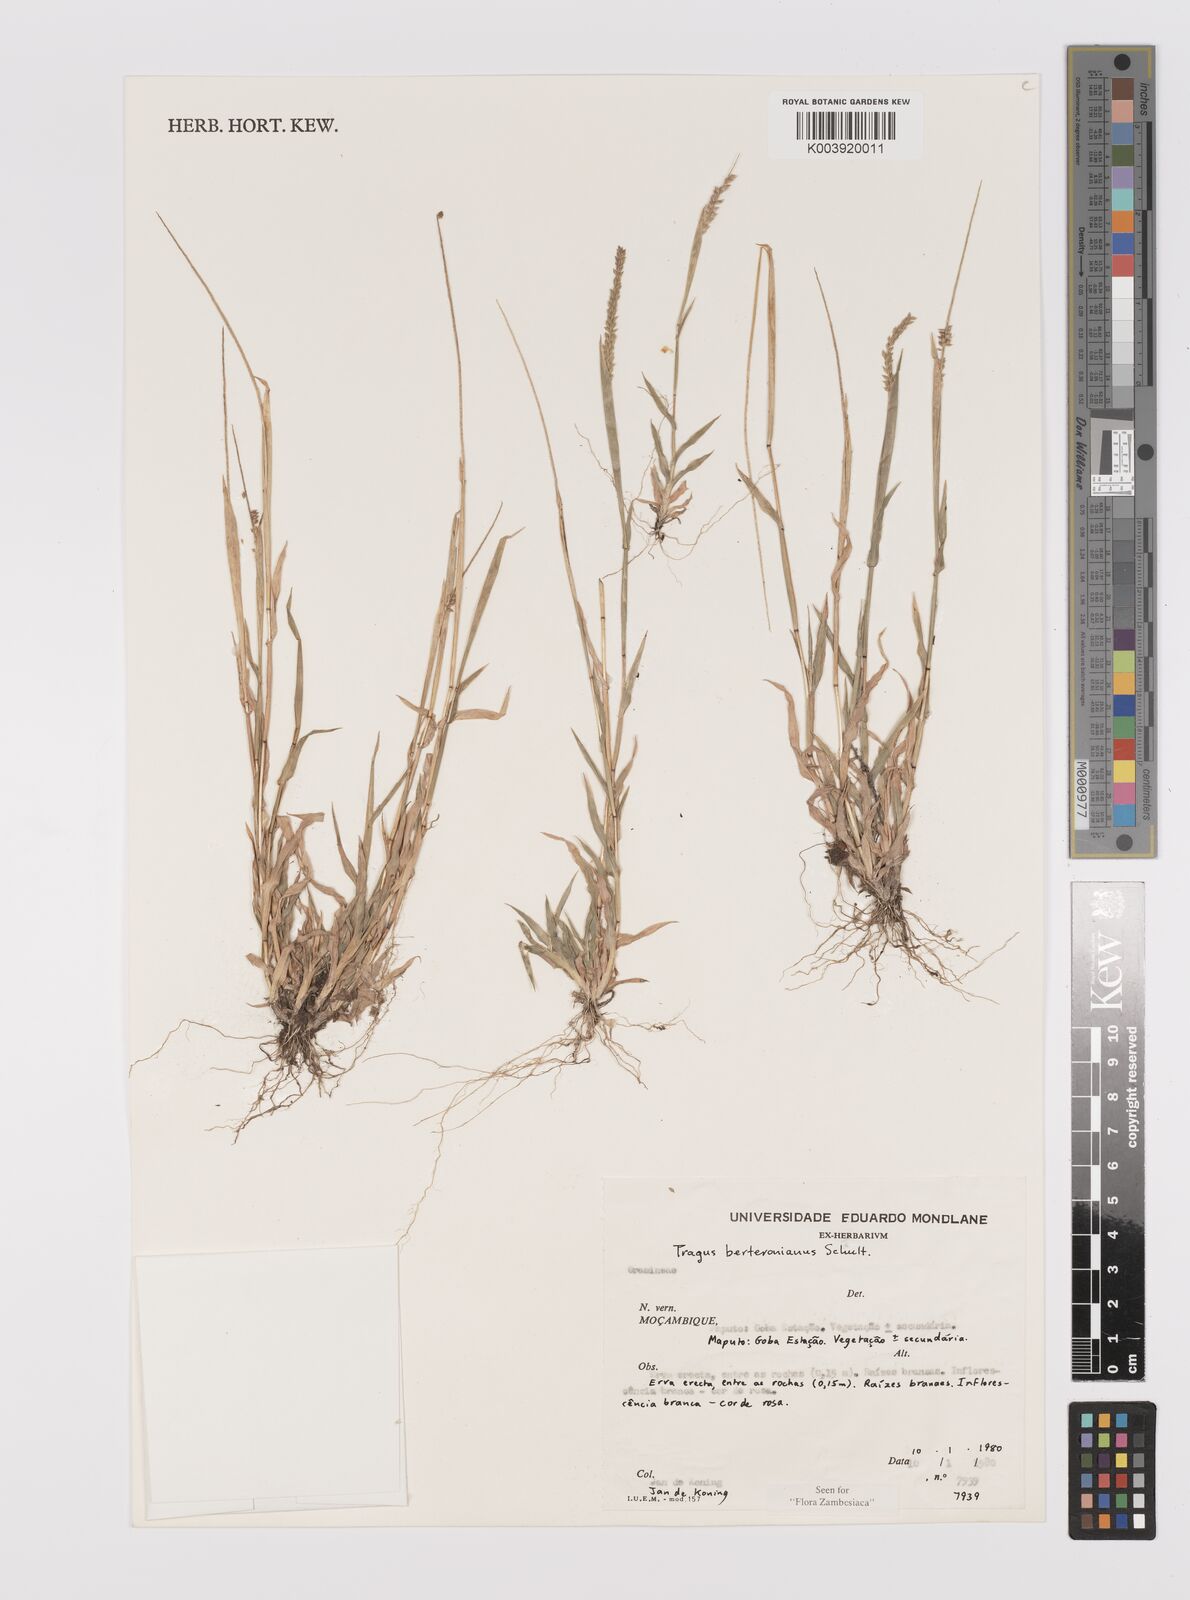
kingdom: Plantae
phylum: Tracheophyta
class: Liliopsida
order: Poales
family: Poaceae
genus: Tragus
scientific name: Tragus berteronianus
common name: African bur-grass
